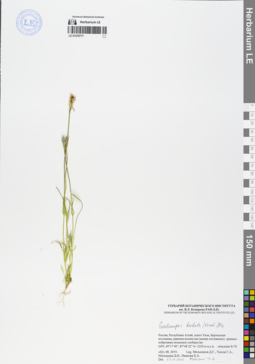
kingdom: Plantae
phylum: Tracheophyta
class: Magnoliopsida
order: Gentianales
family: Gentianaceae
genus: Gentianopsis
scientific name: Gentianopsis barbata
